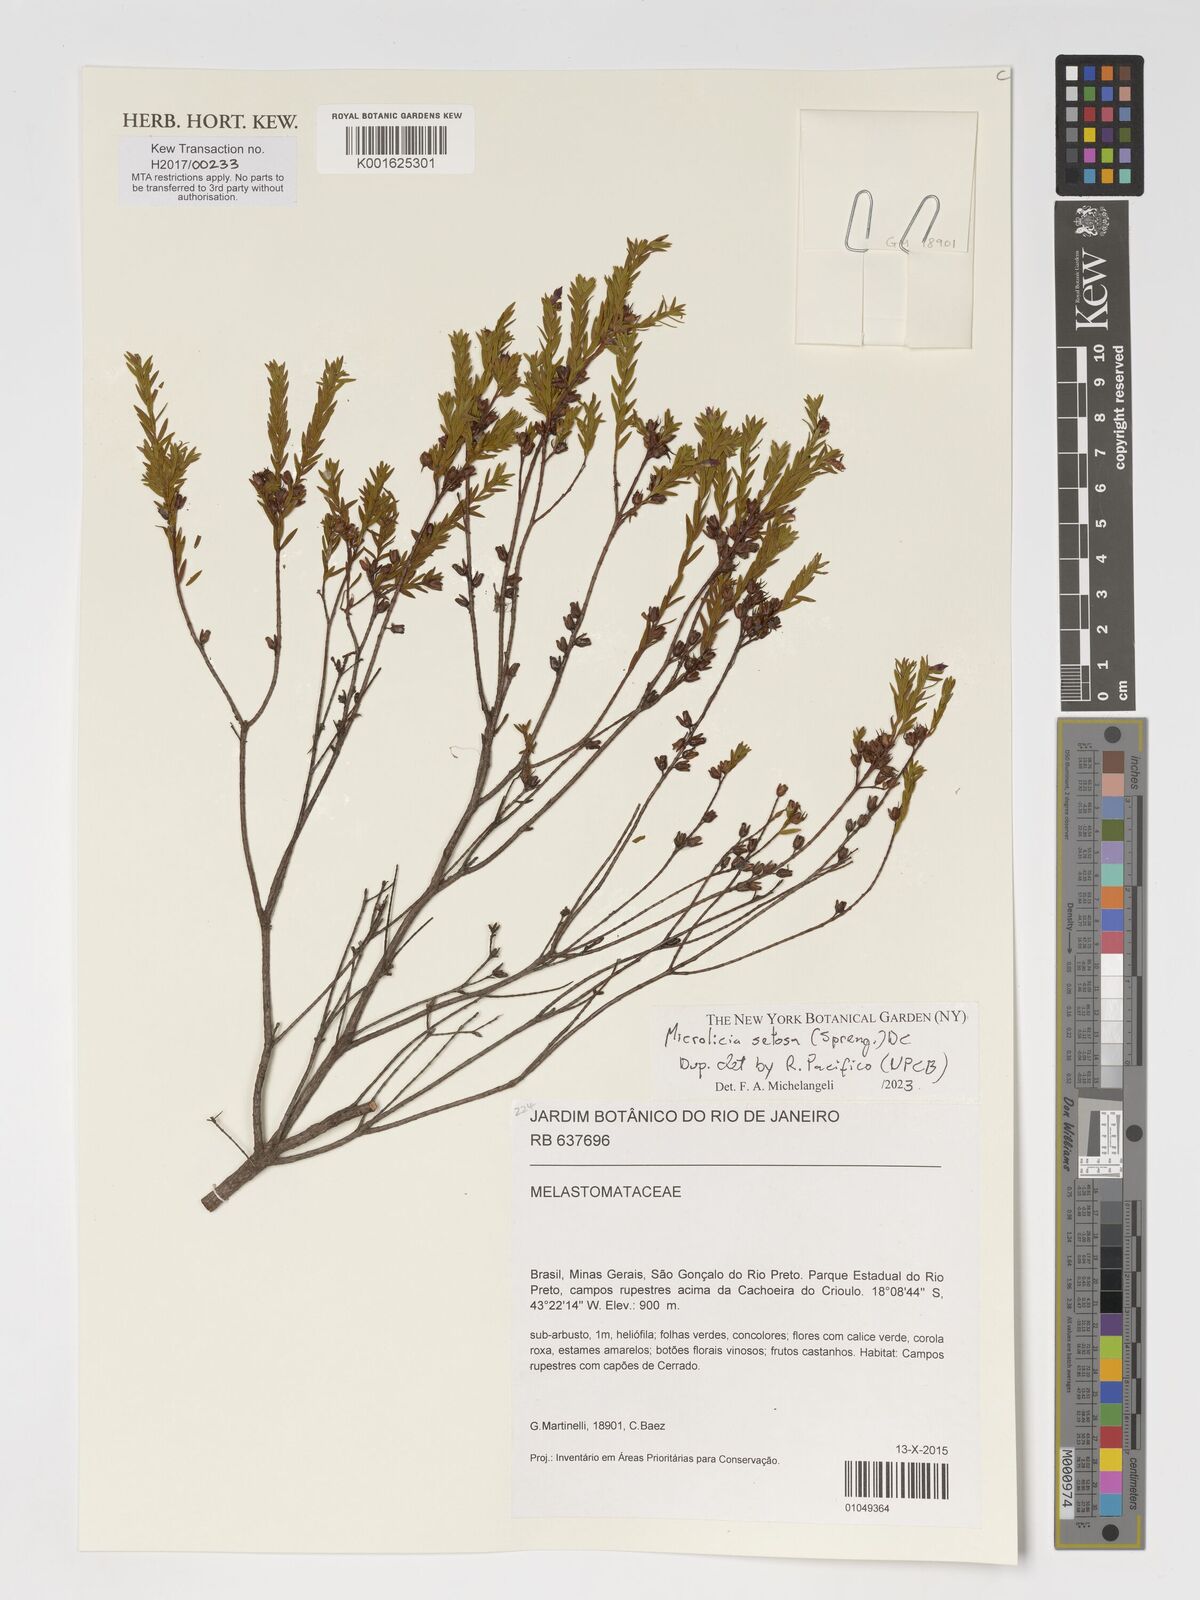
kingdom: Plantae
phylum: Tracheophyta
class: Magnoliopsida
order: Myrtales
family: Melastomataceae
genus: Microlicia
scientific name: Microlicia setosa
